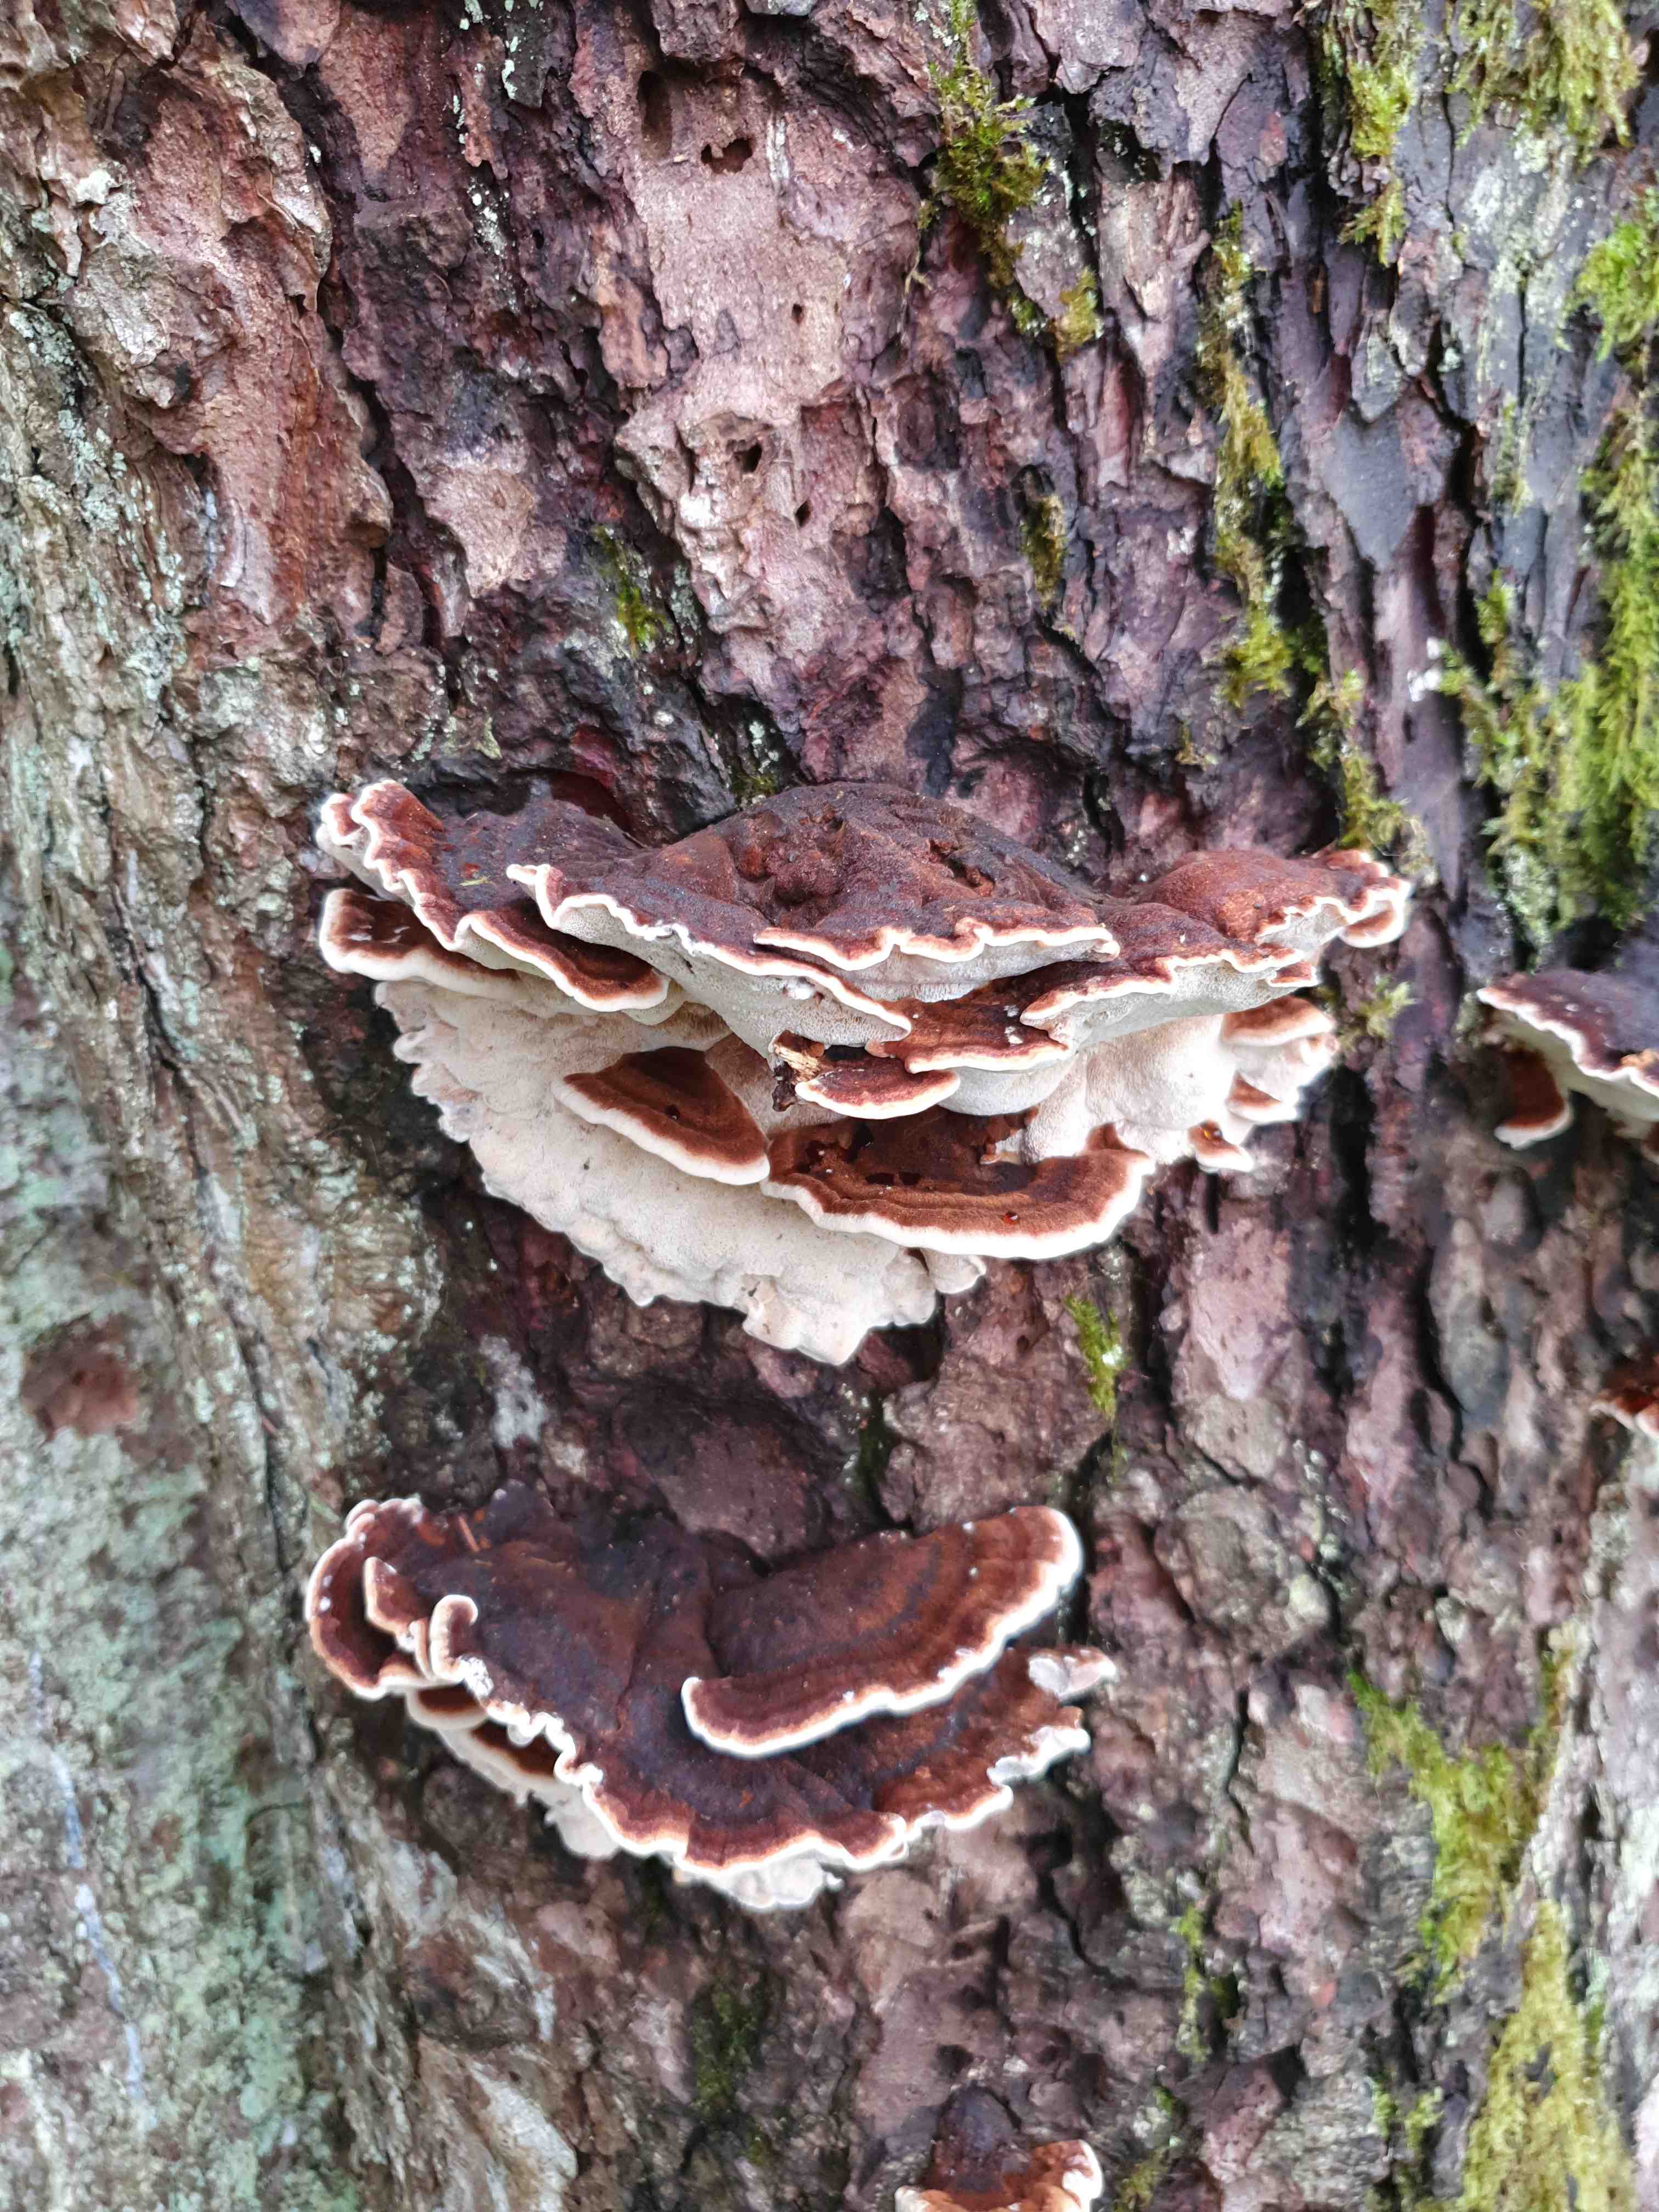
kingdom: Fungi
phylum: Basidiomycota
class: Agaricomycetes
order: Polyporales
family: Ischnodermataceae
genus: Ischnoderma
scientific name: Ischnoderma benzoinum
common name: gran-tjæreporesvamp
